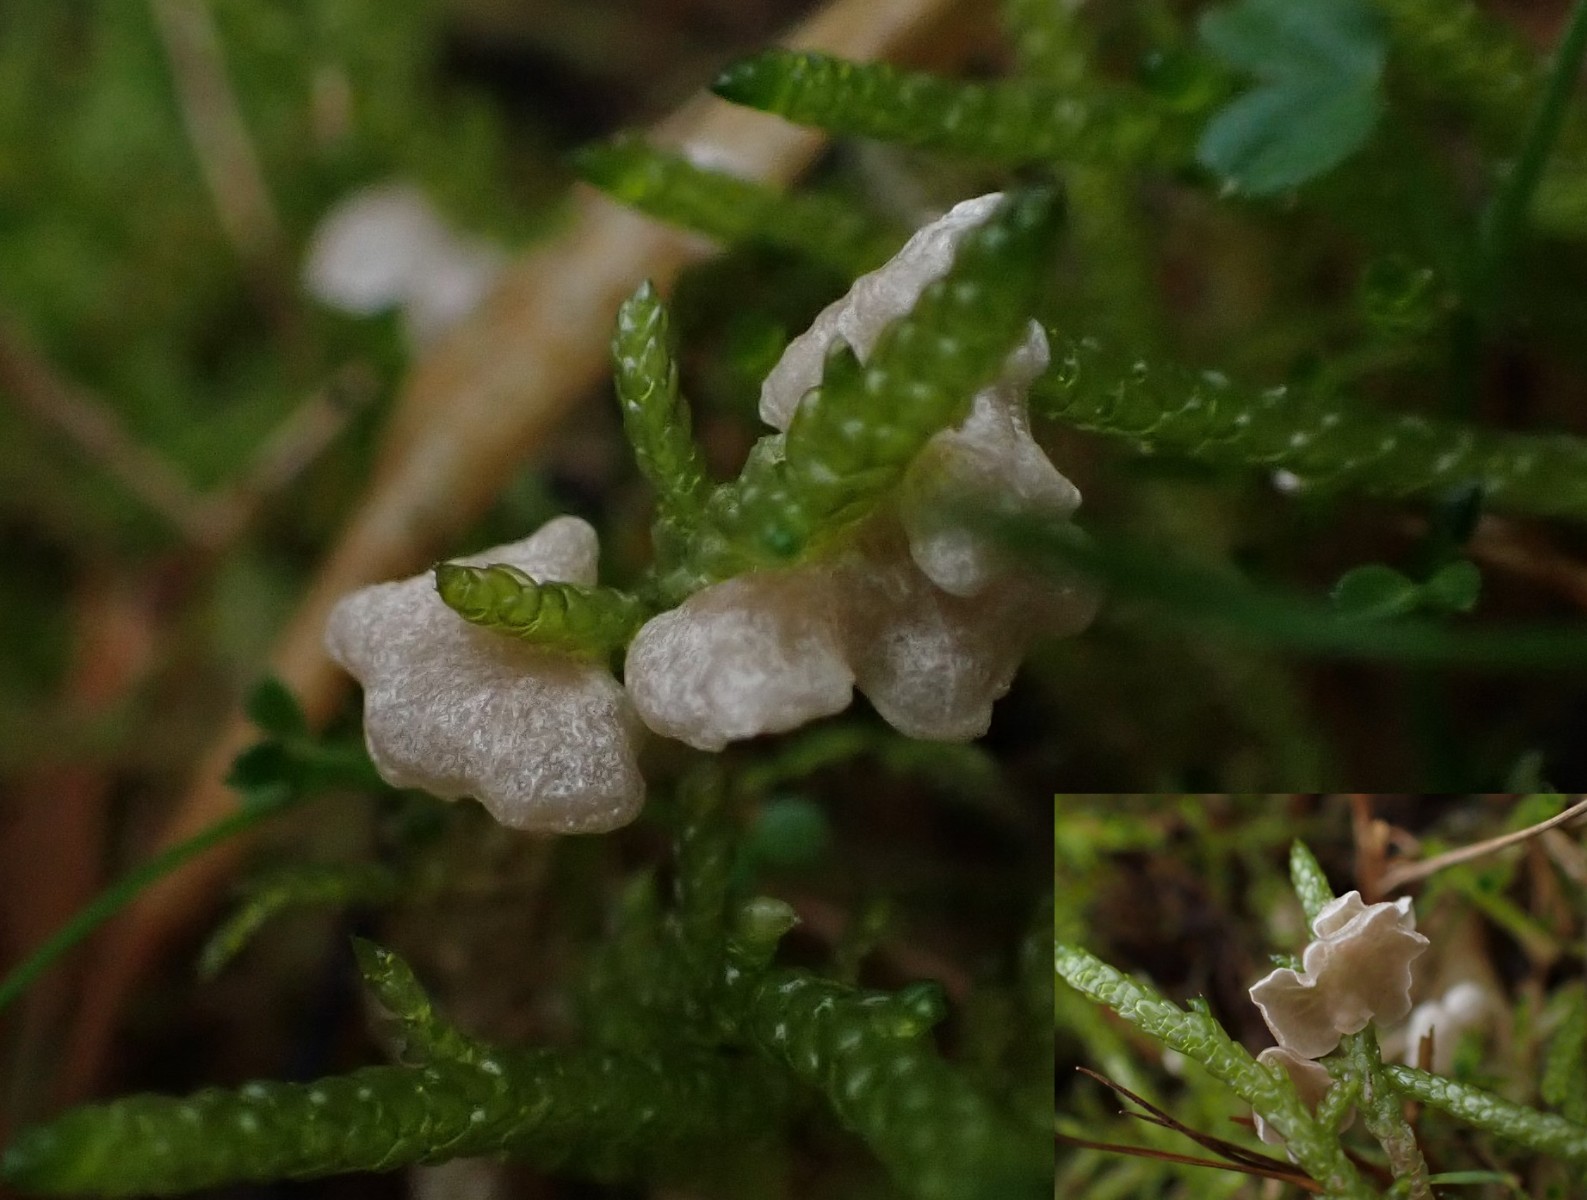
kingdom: Fungi
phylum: Basidiomycota
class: Agaricomycetes
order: Agaricales
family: Hygrophoraceae
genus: Arrhenia
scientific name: Arrhenia retiruga
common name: lille fontænehat
